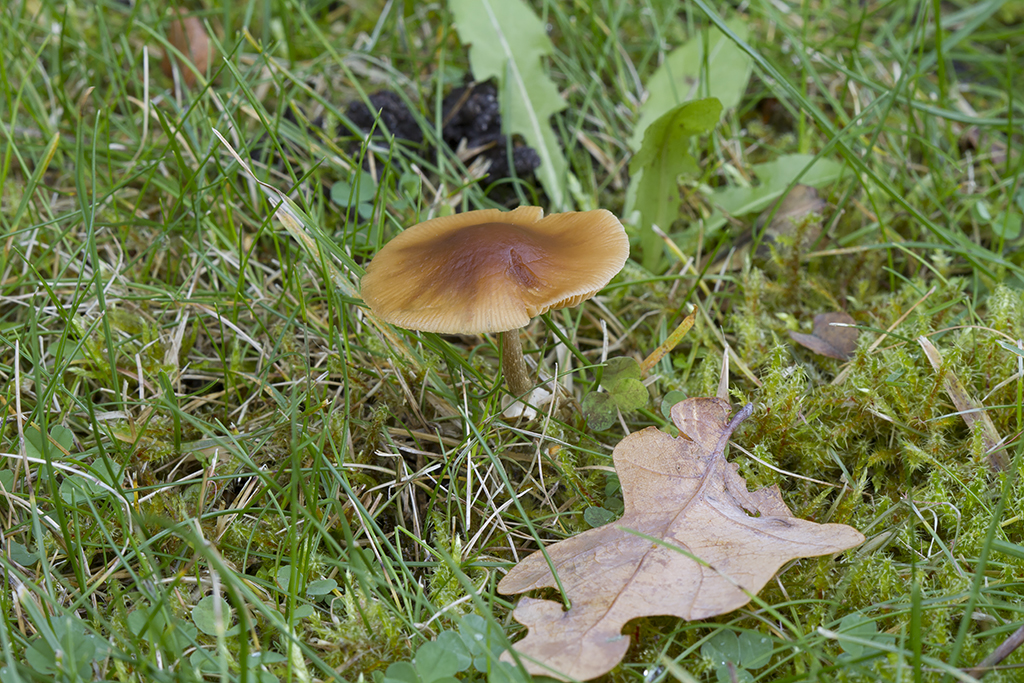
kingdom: Fungi
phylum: Basidiomycota
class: Agaricomycetes
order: Agaricales
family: Bolbitiaceae
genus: Conocybe
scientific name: Conocybe arrhenii
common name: ring-dansehat
